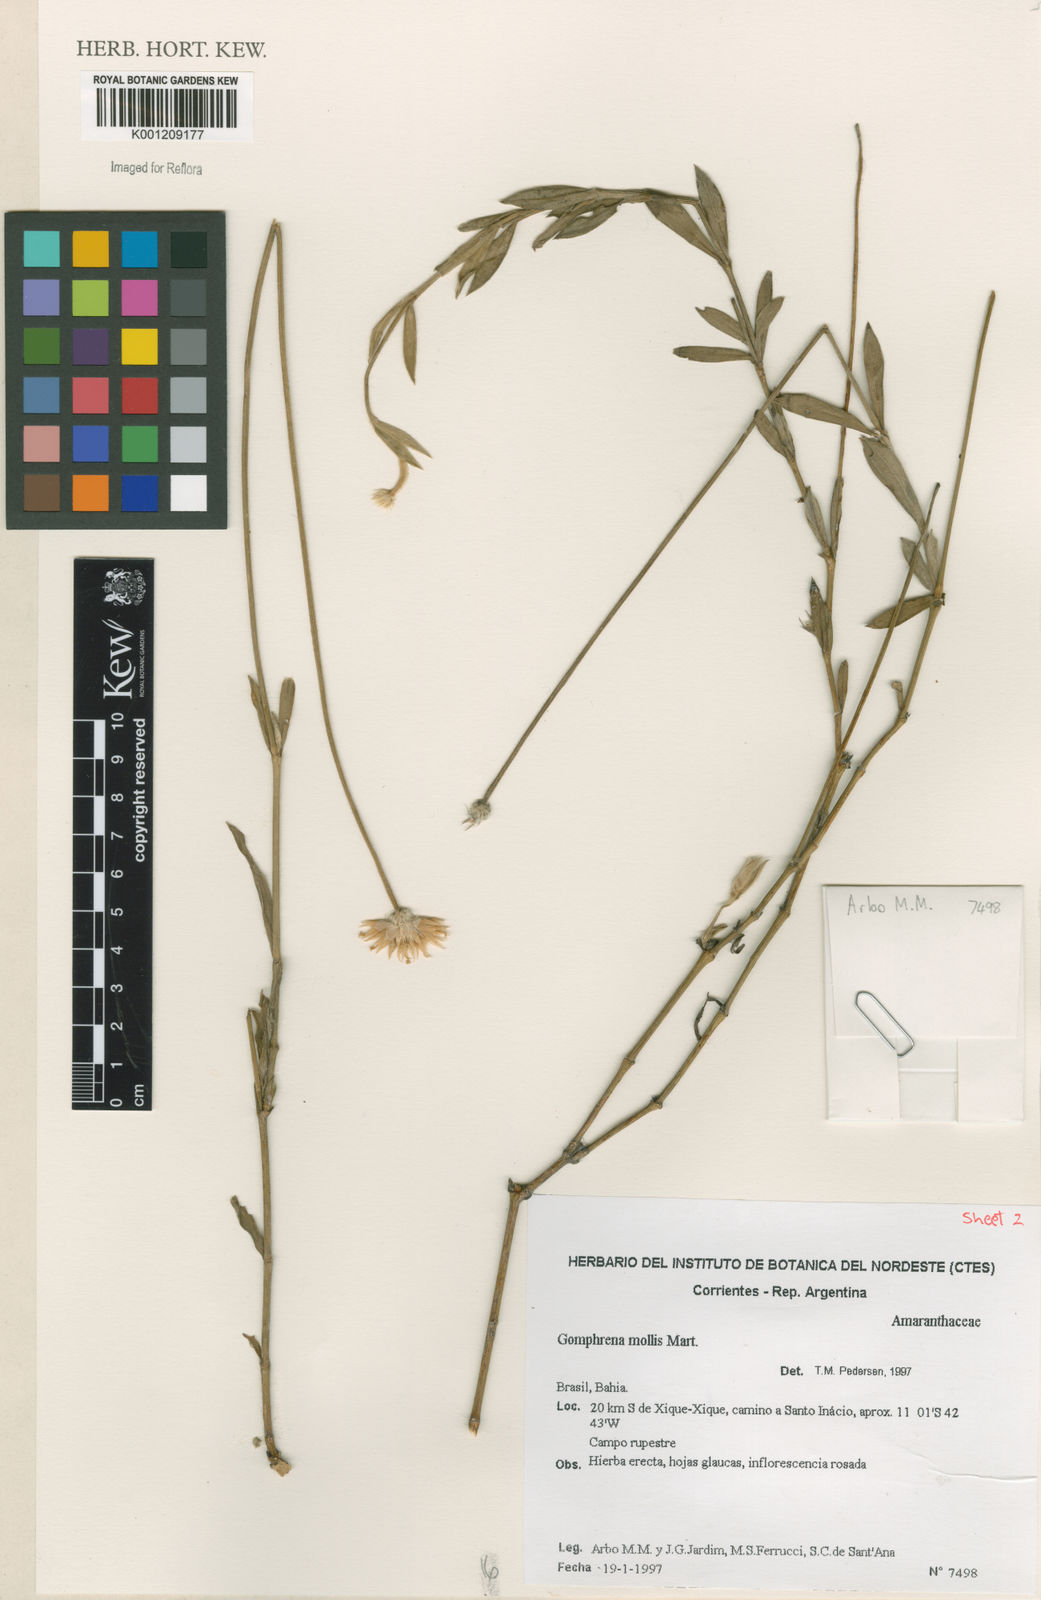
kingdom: Plantae
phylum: Tracheophyta
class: Magnoliopsida
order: Caryophyllales
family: Amaranthaceae
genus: Gomphrena
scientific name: Gomphrena mollis
